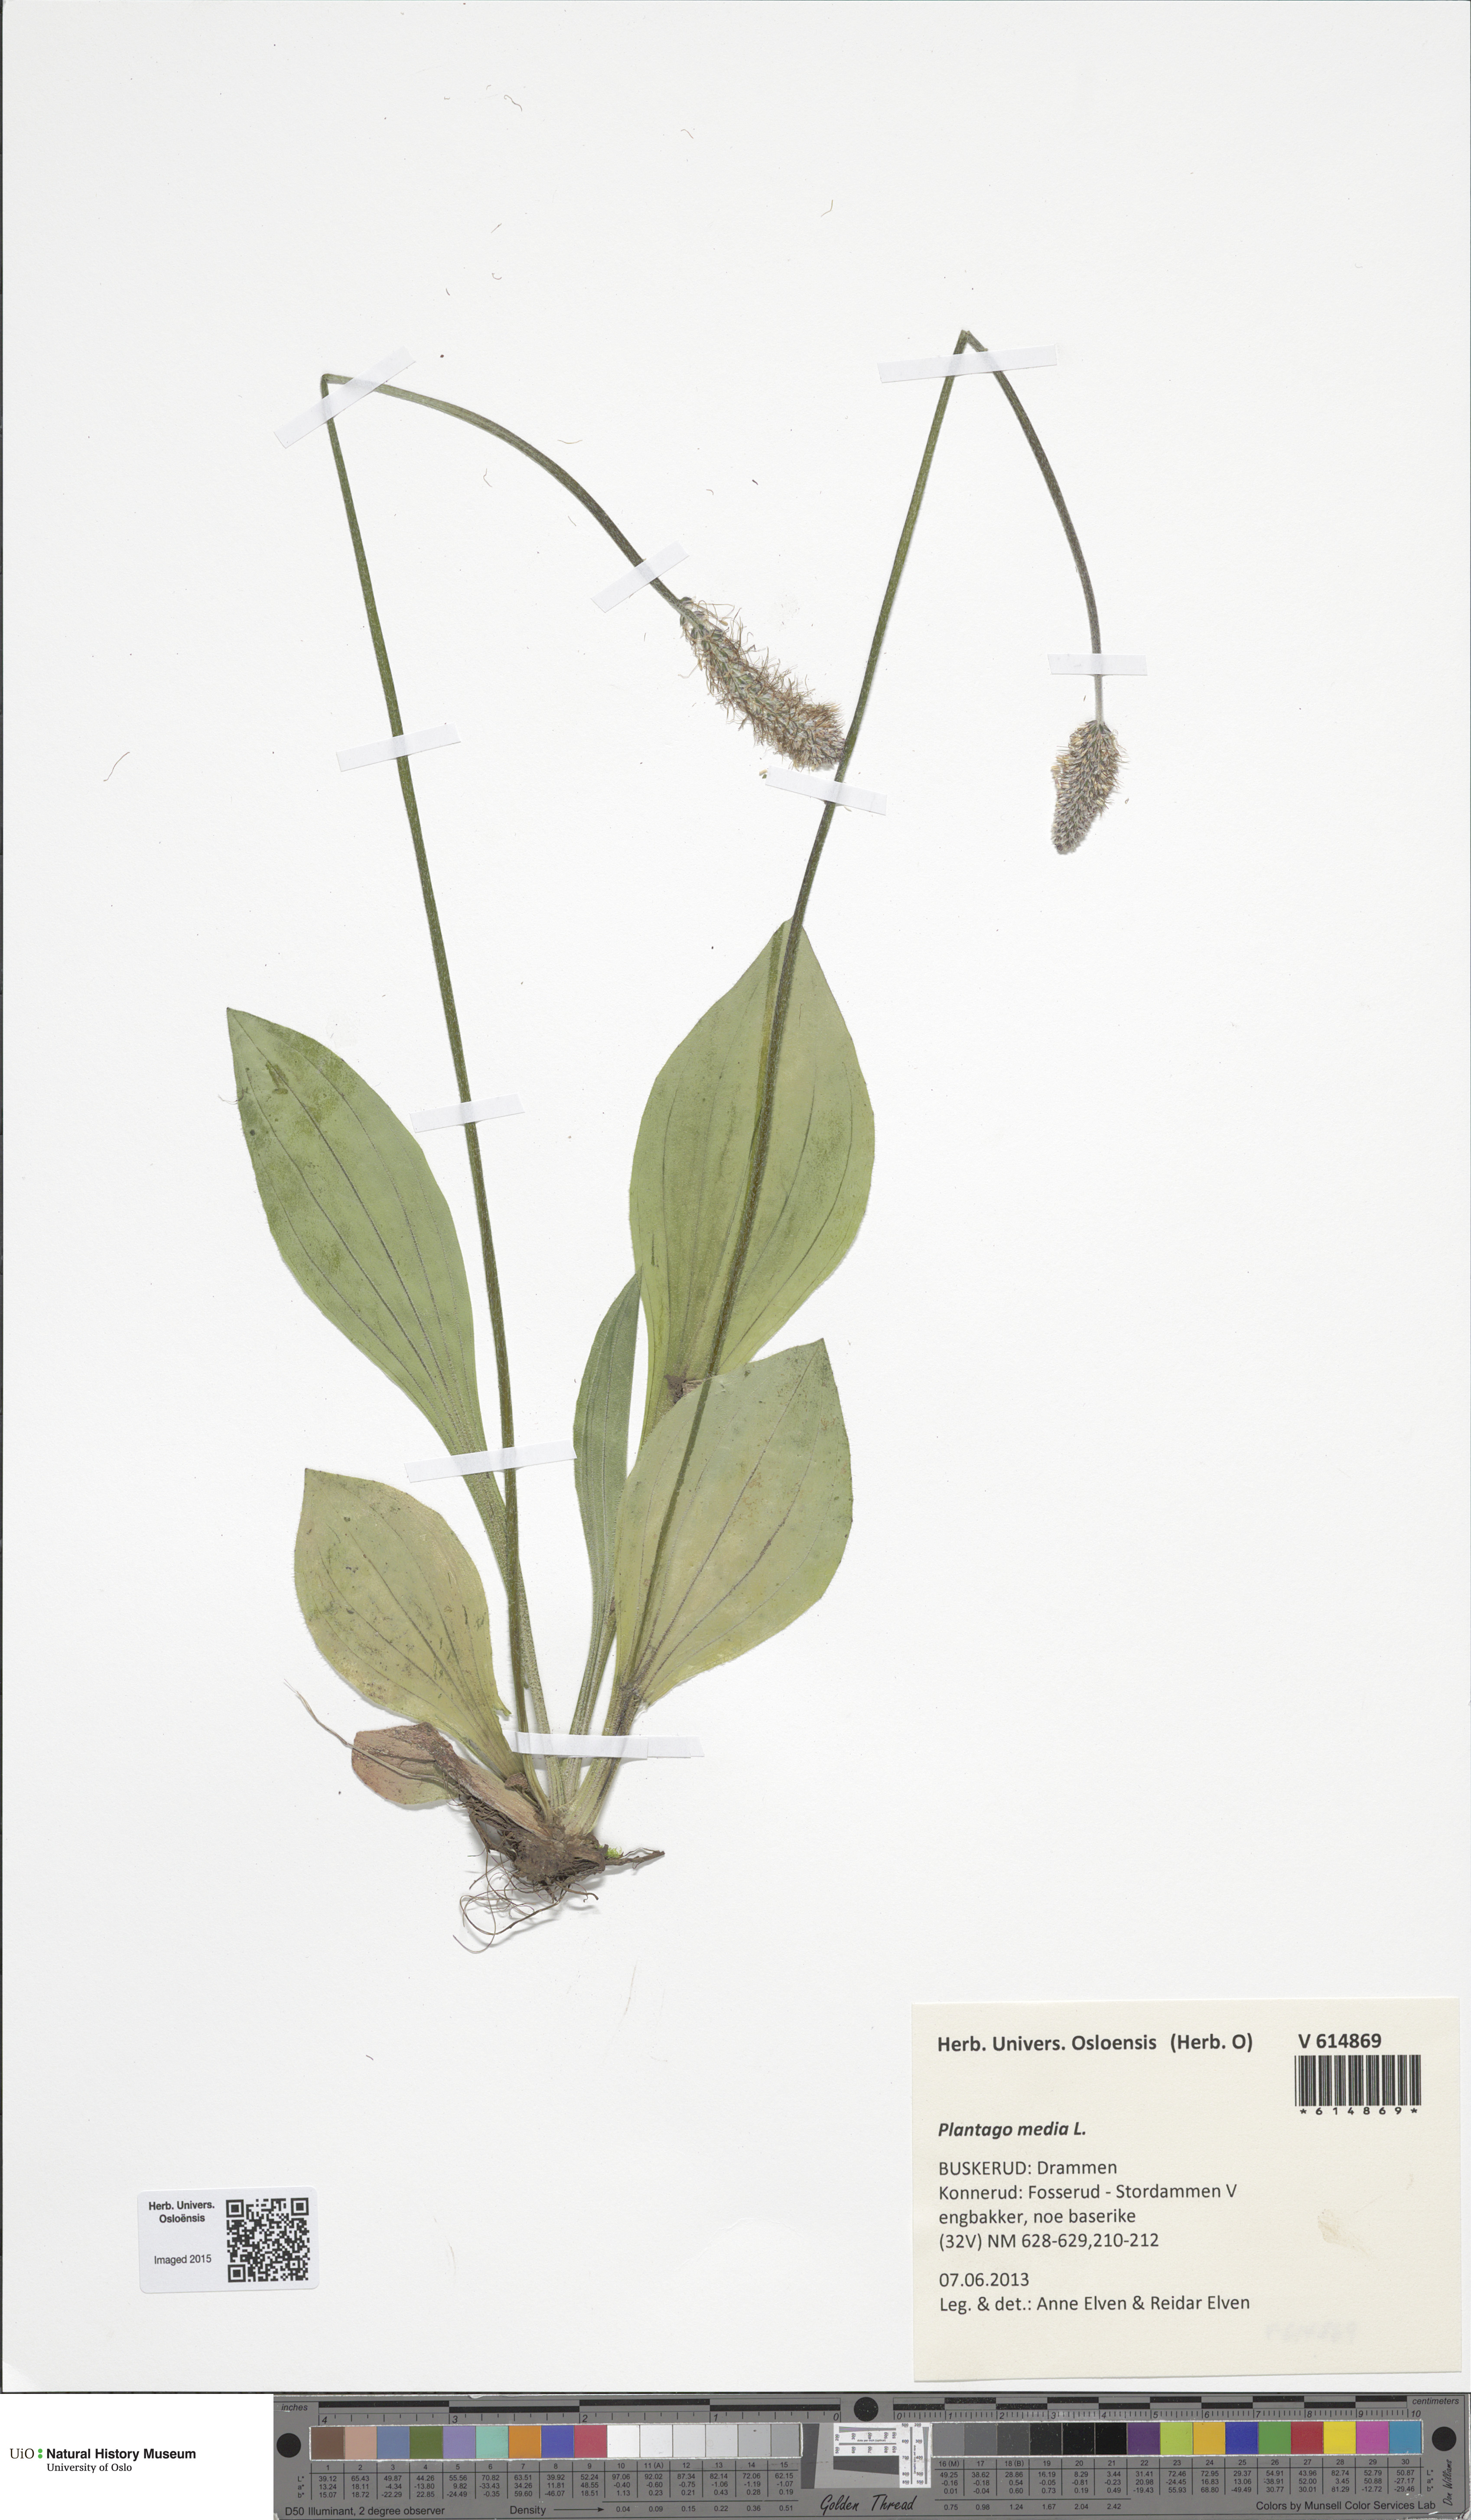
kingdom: Plantae
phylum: Tracheophyta
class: Magnoliopsida
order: Lamiales
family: Plantaginaceae
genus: Plantago
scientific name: Plantago media
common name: Hoary plantain
